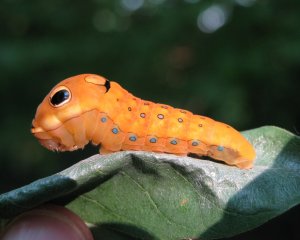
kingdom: Animalia
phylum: Arthropoda
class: Insecta
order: Lepidoptera
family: Papilionidae
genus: Pterourus
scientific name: Pterourus troilus
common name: Spicebush Swallowtail
